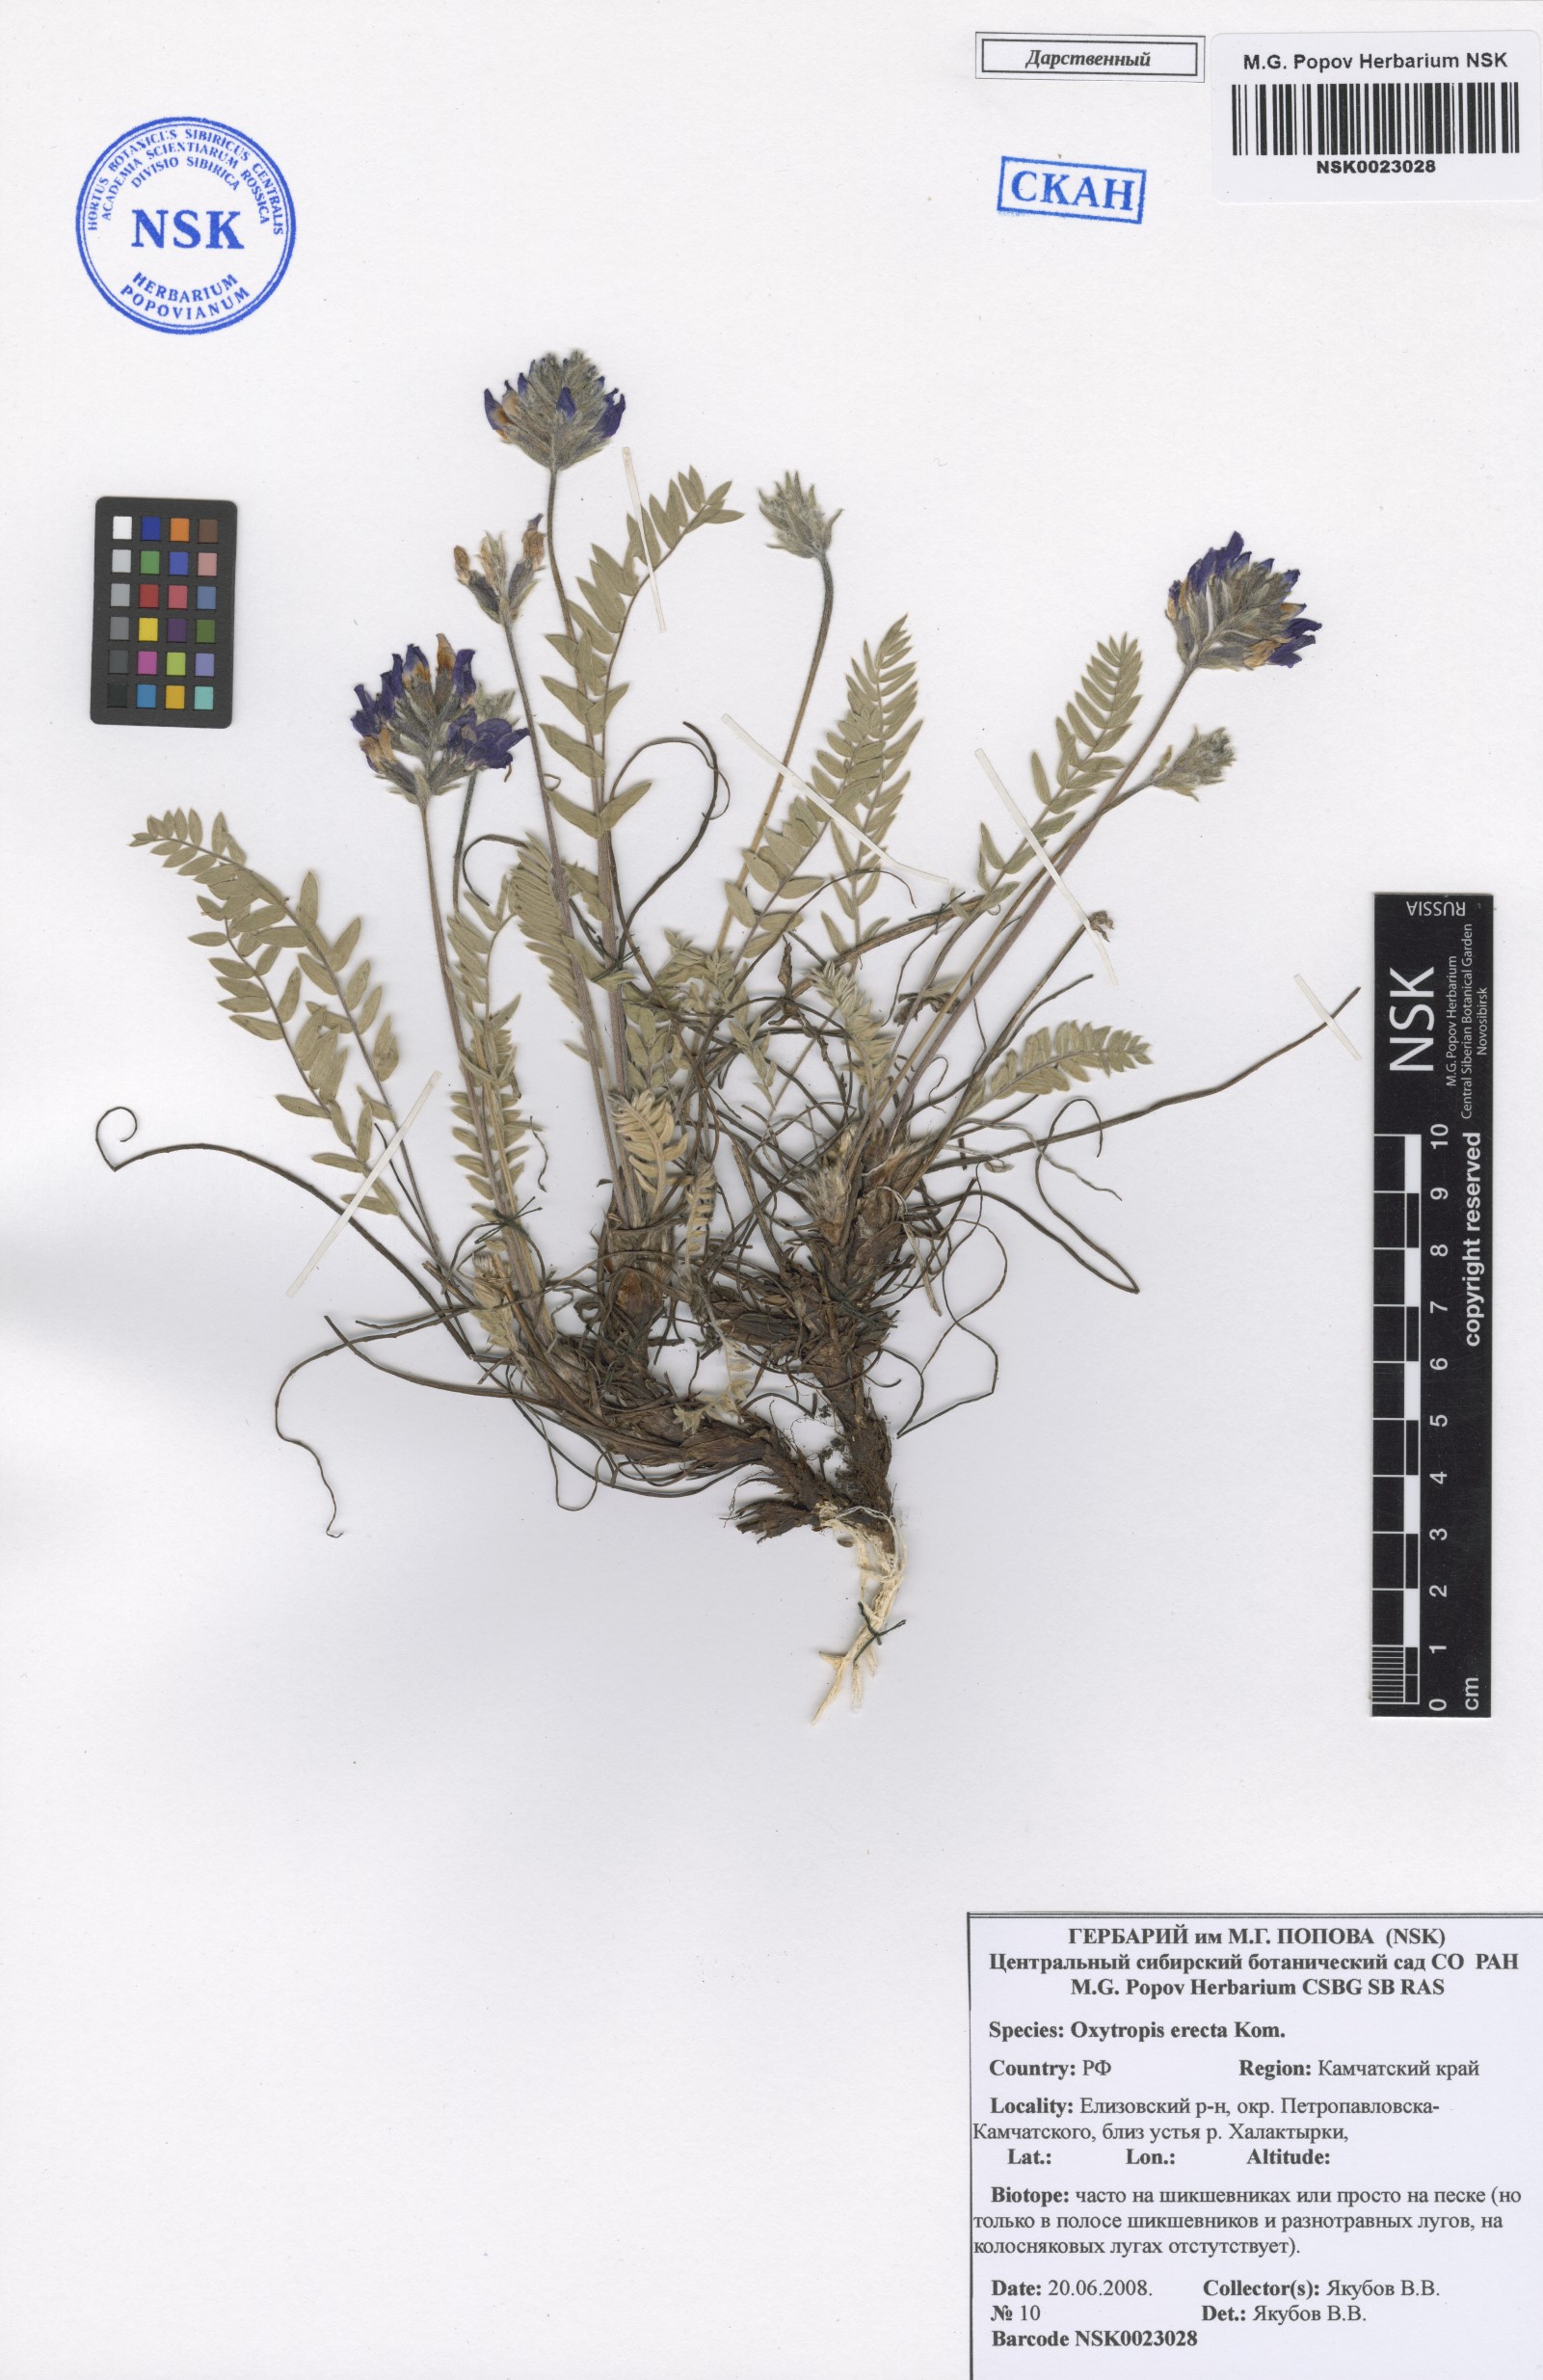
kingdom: Plantae
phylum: Tracheophyta
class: Magnoliopsida
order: Fabales
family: Fabaceae
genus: Oxytropis
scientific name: Oxytropis adamsiana
